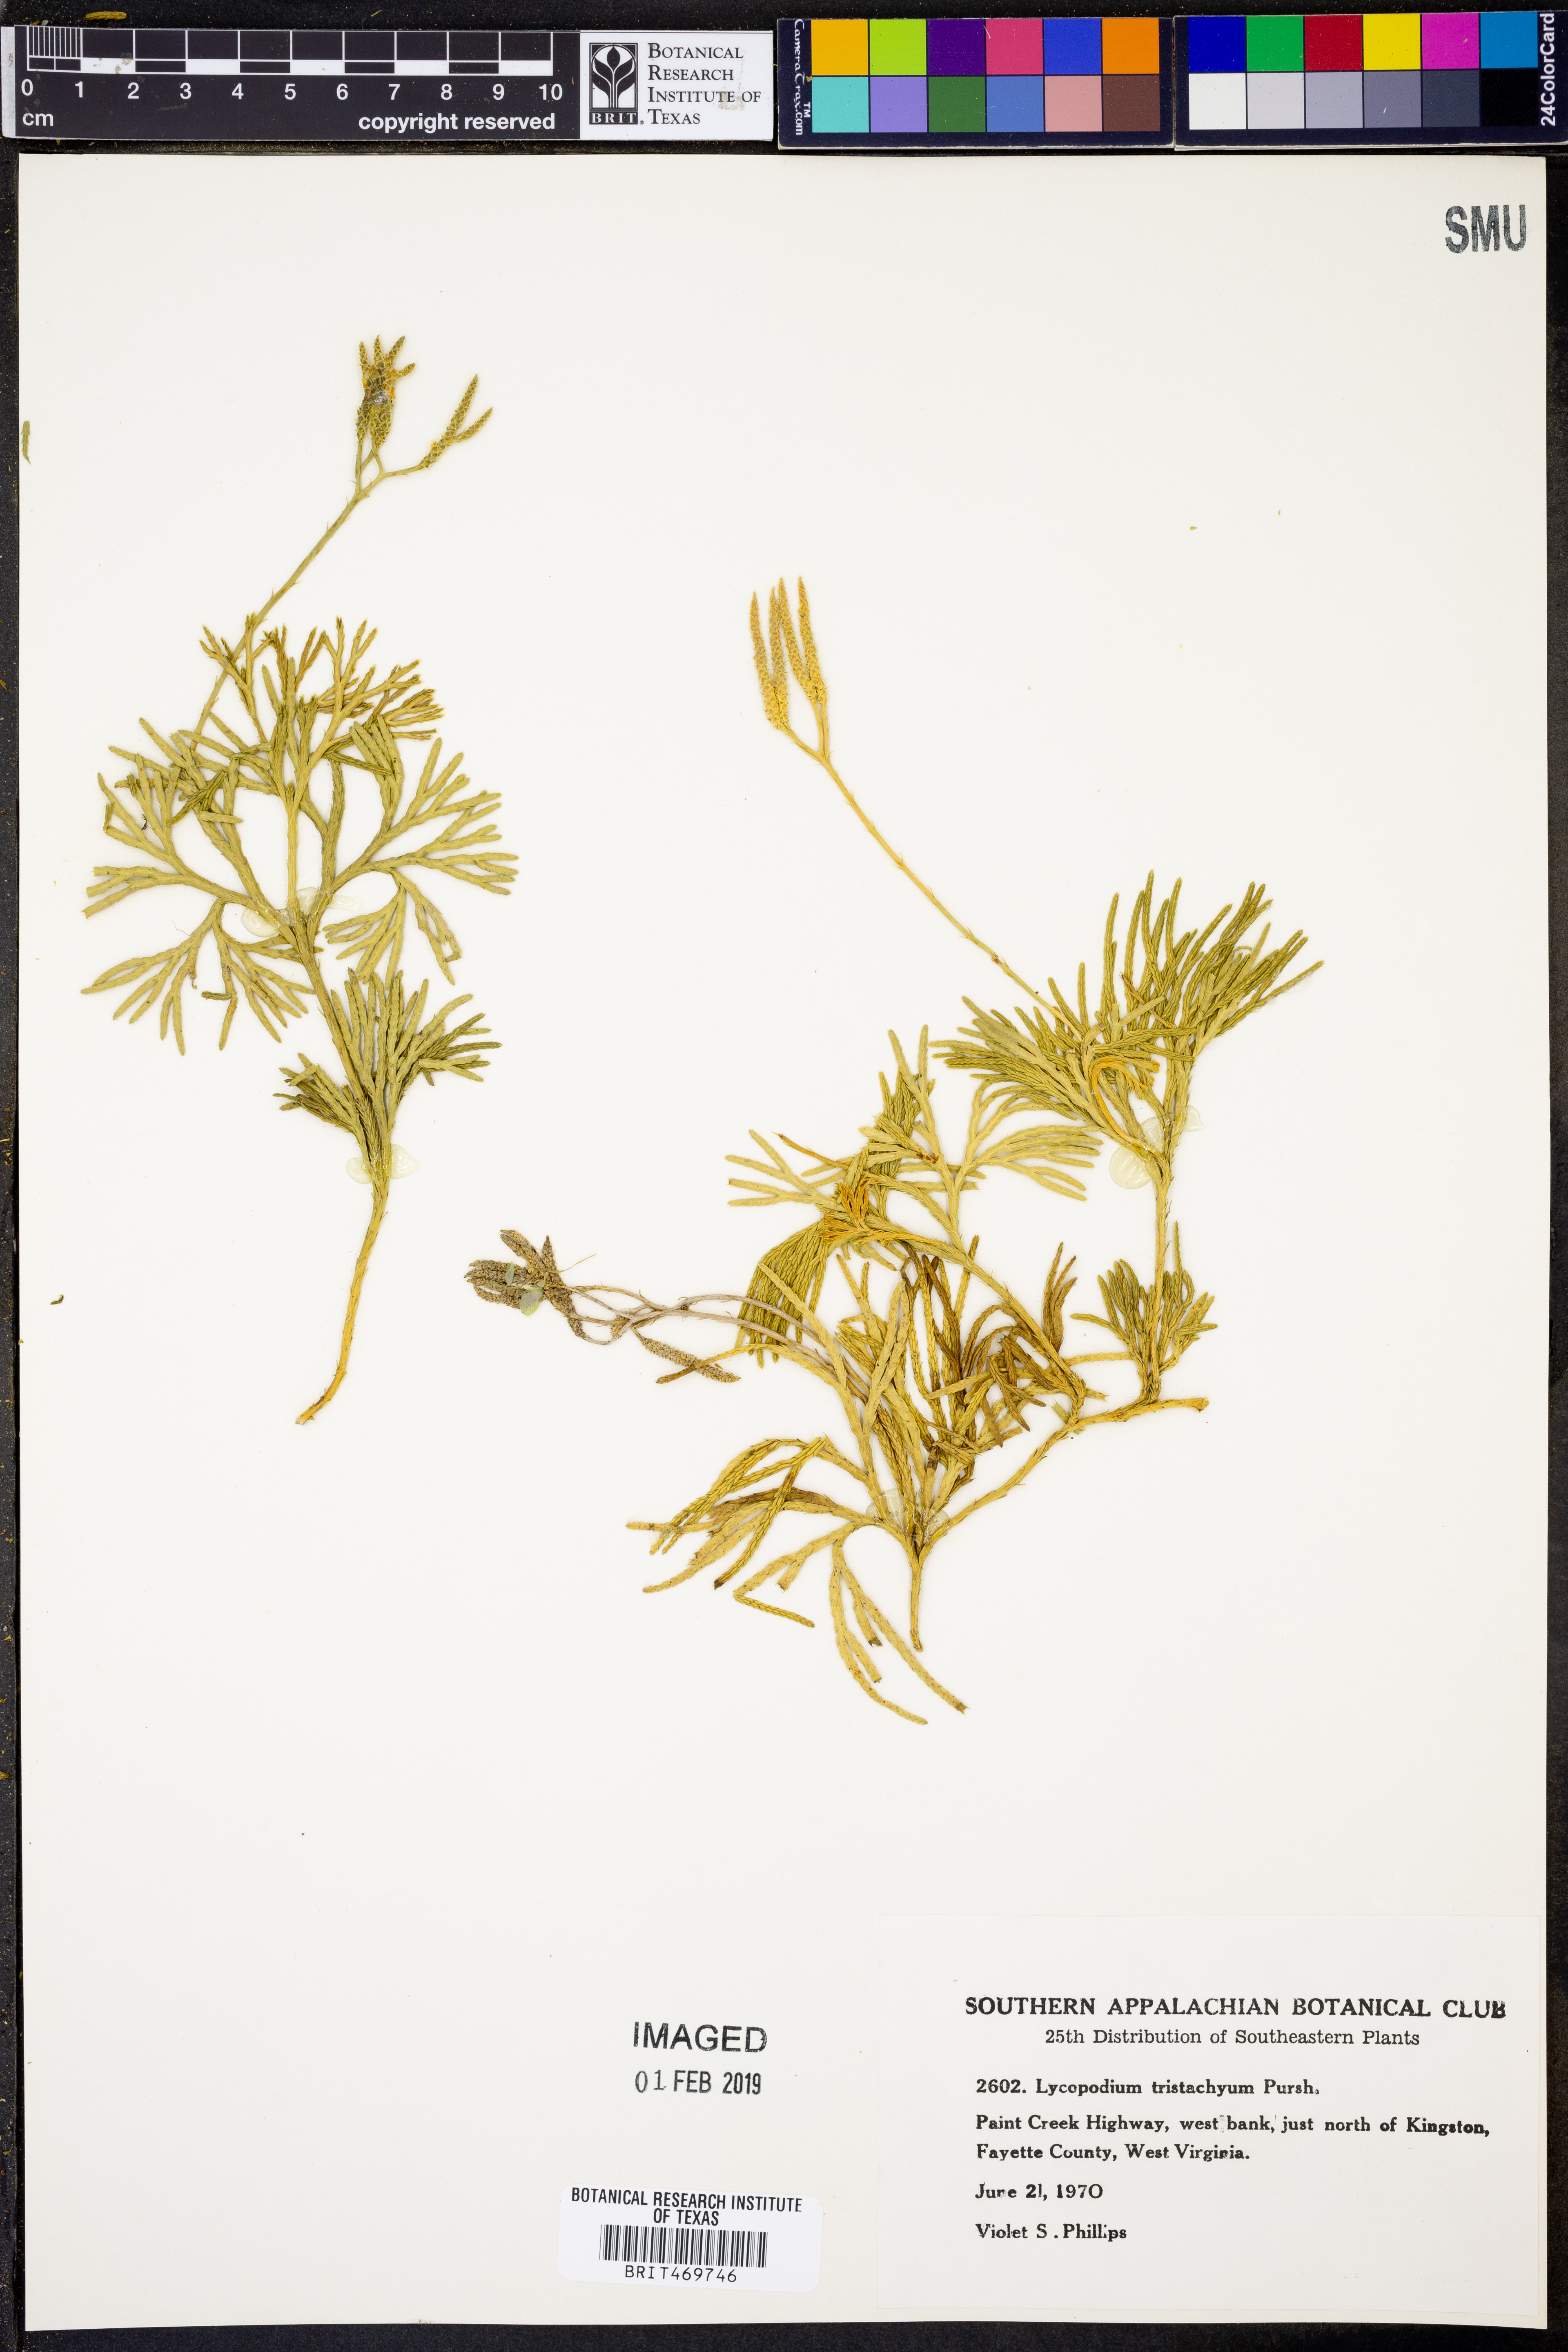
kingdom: Plantae
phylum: Tracheophyta
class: Lycopodiopsida
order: Lycopodiales
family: Lycopodiaceae
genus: Diphasiastrum
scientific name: Diphasiastrum tristachyum
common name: Blue ground-cedar
